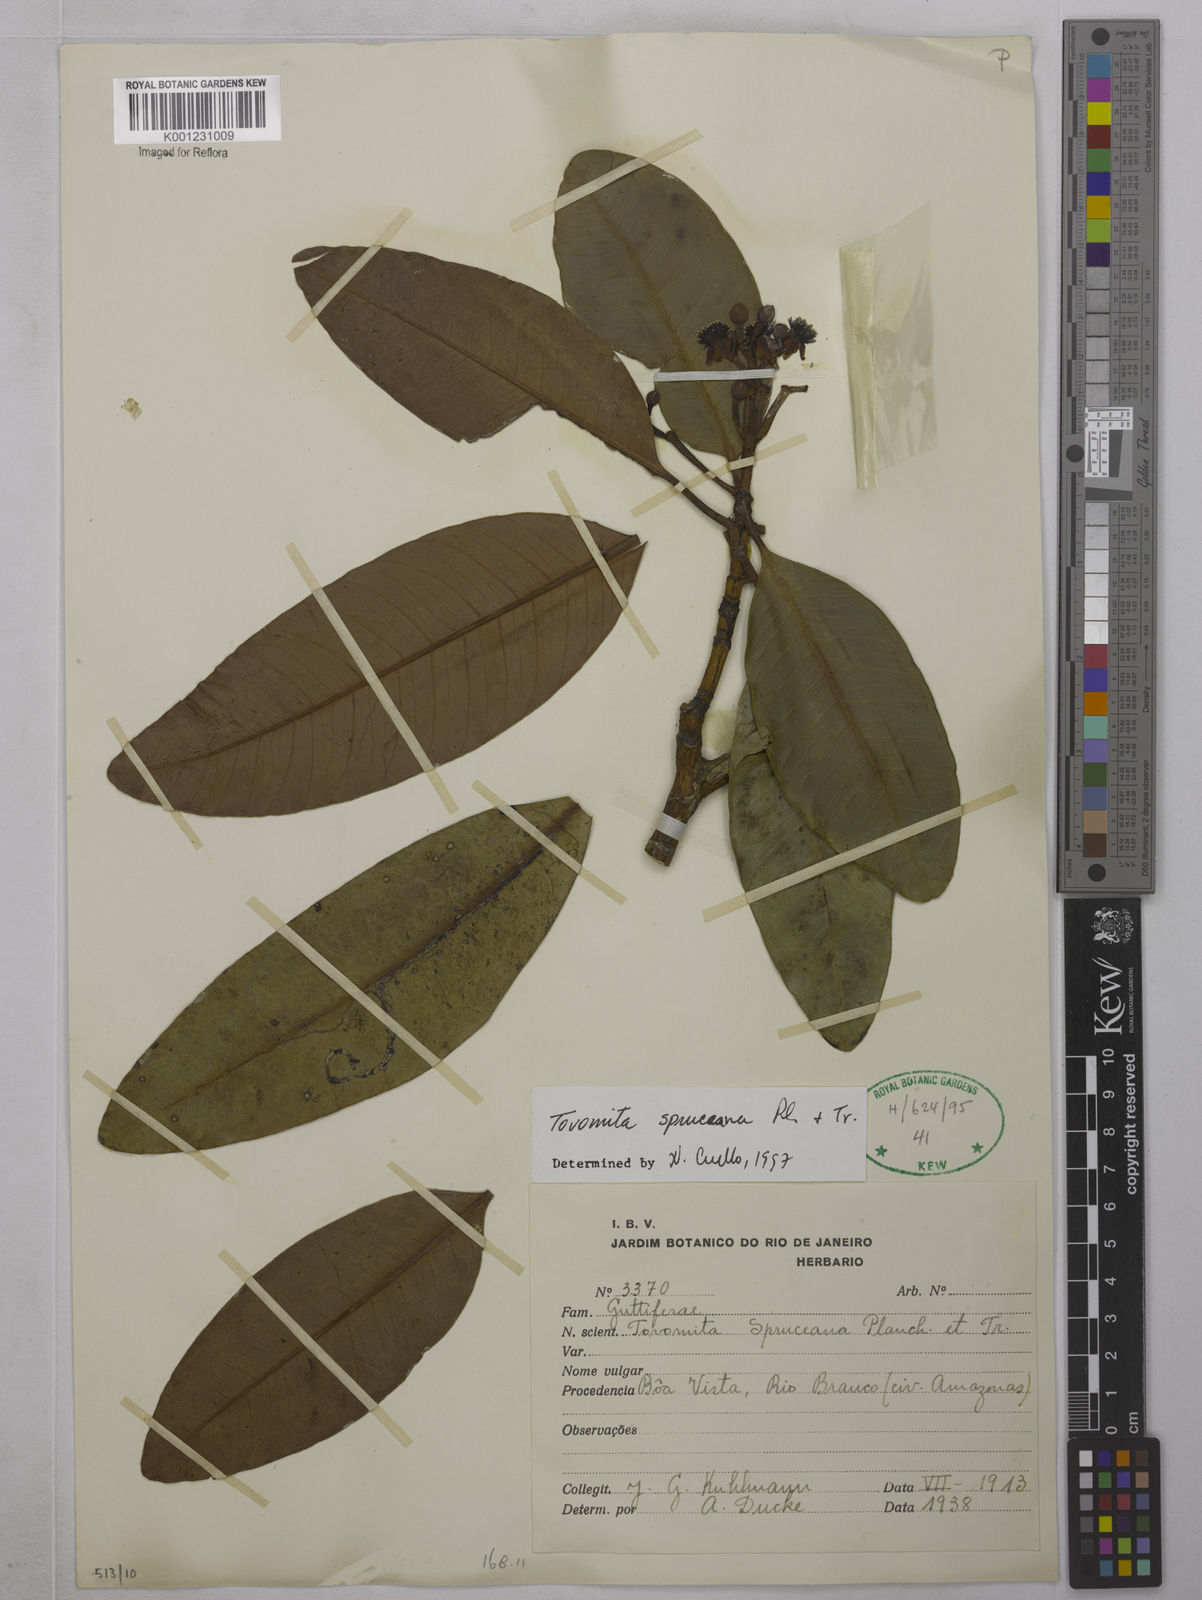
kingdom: Plantae
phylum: Tracheophyta
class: Magnoliopsida
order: Malpighiales
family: Clusiaceae
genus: Tovomita
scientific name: Tovomita spruceana
